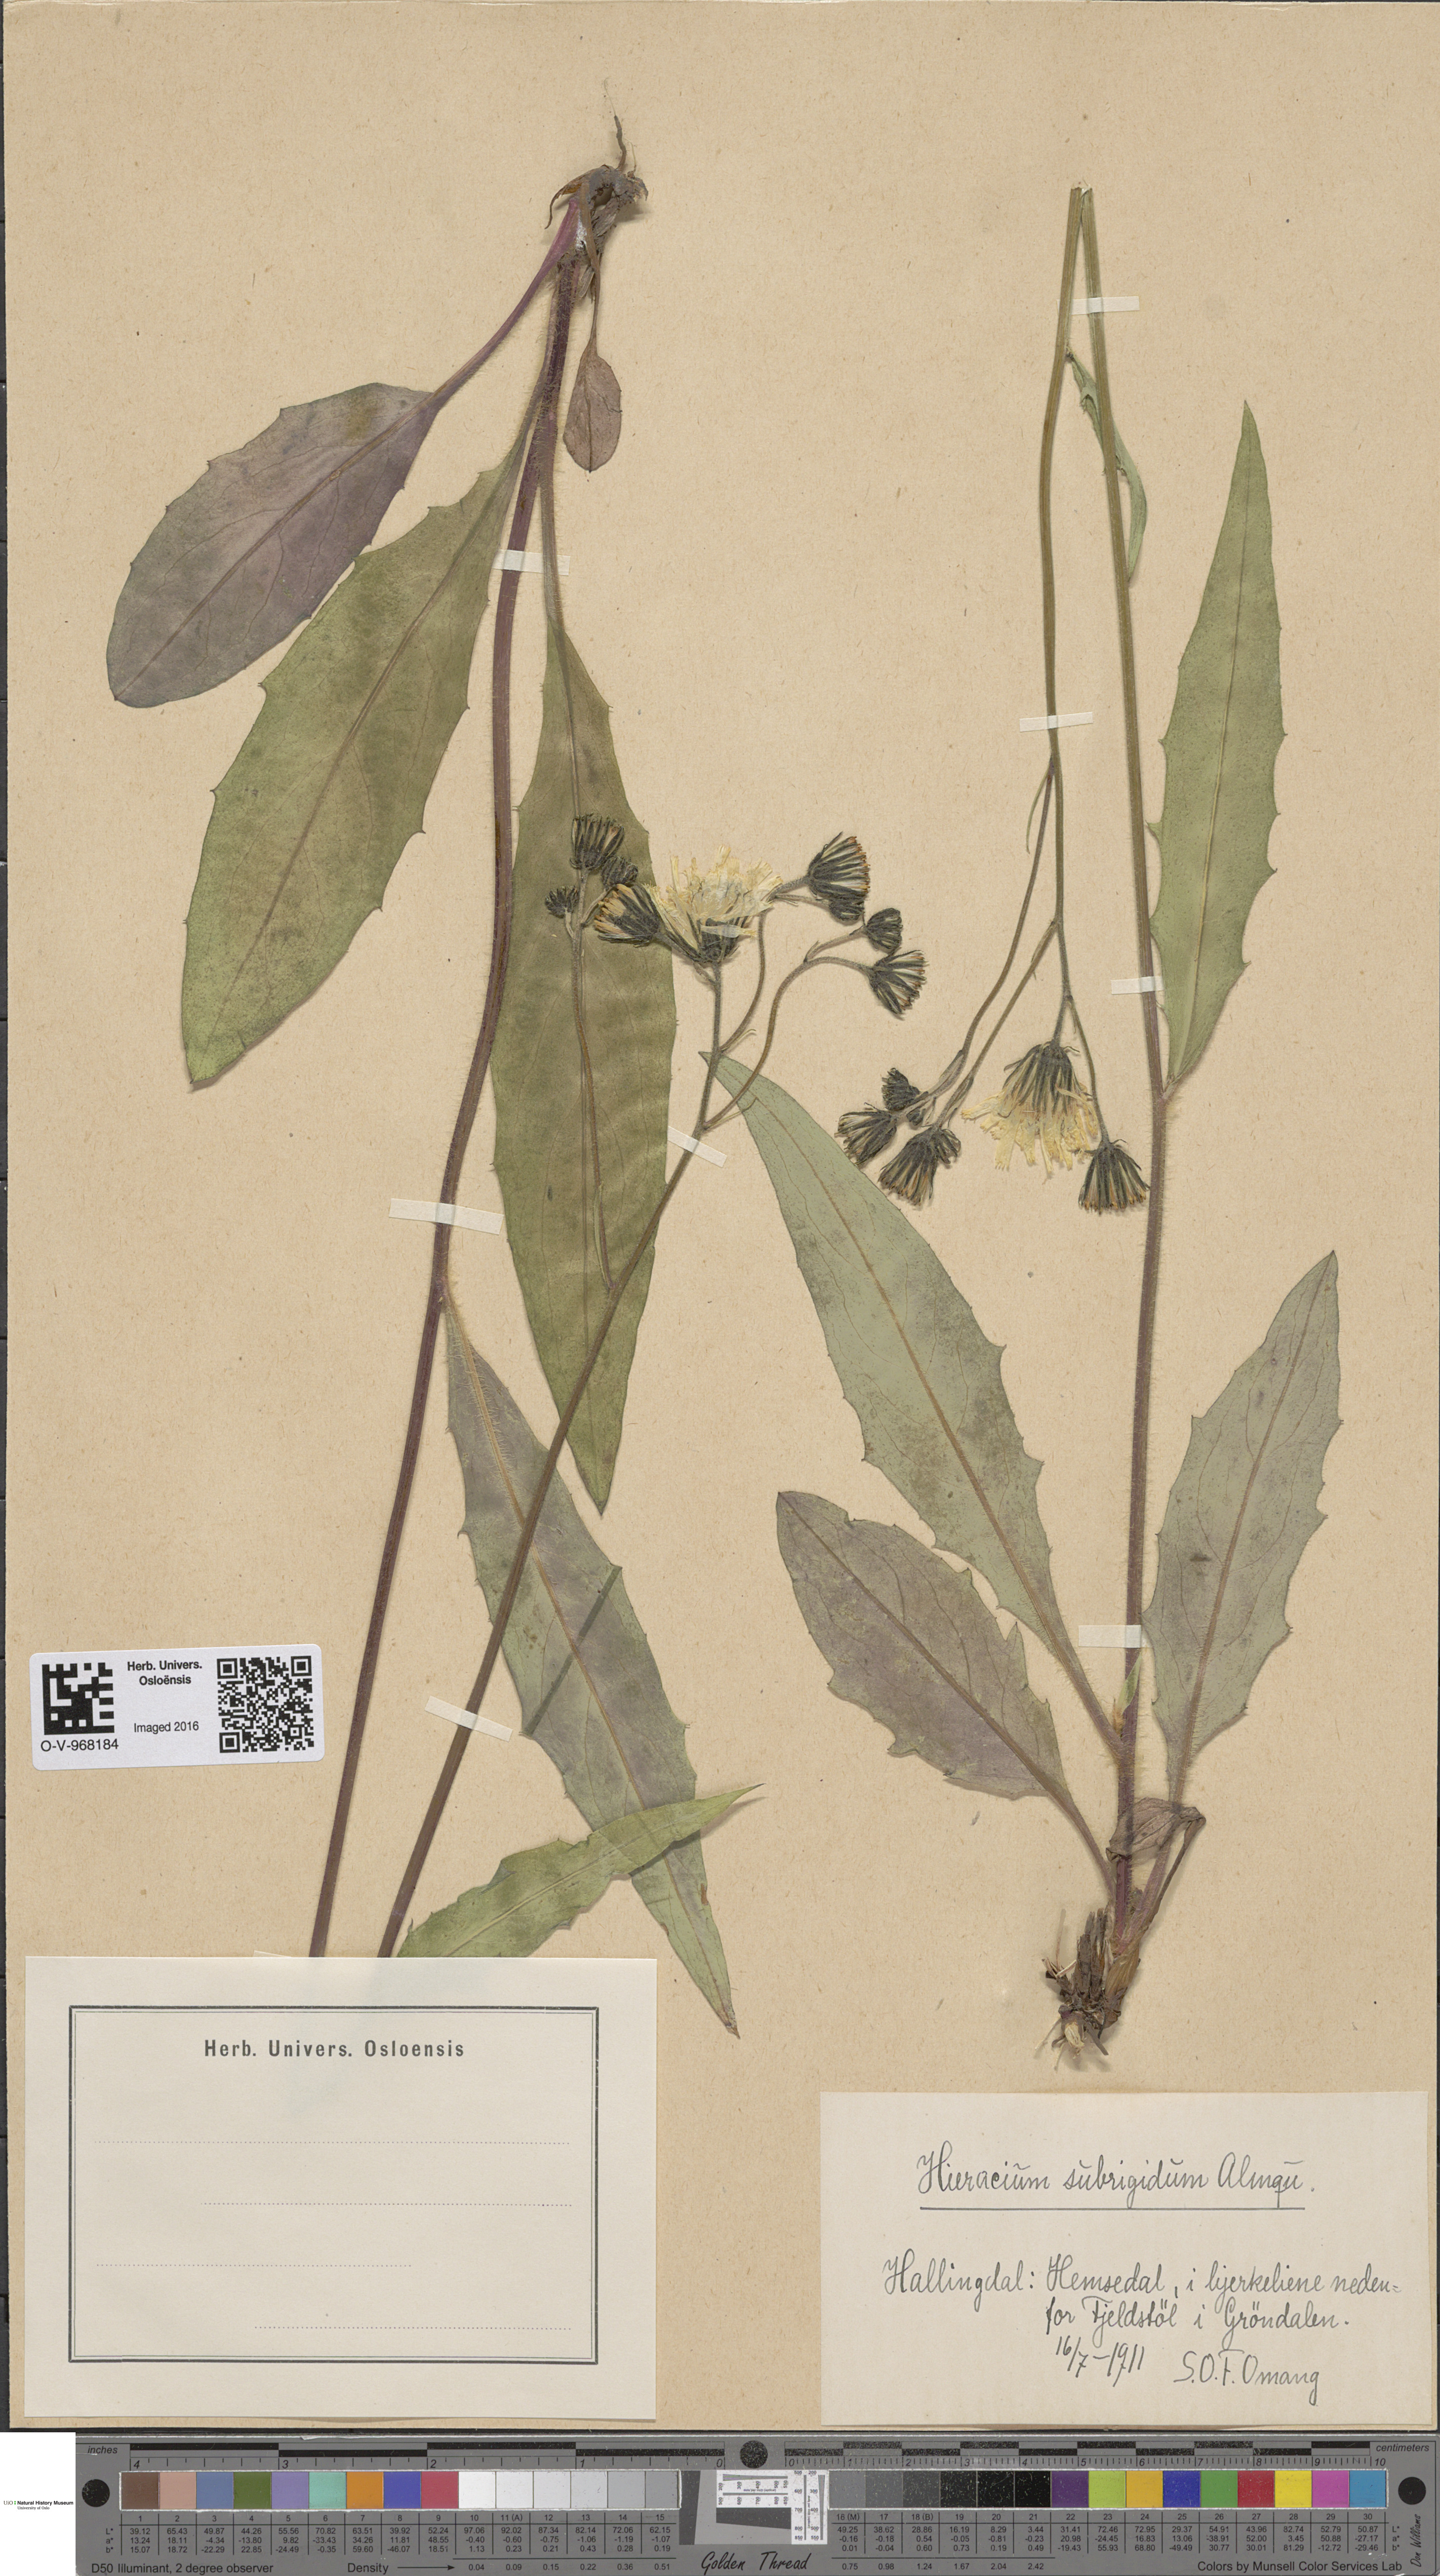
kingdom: Plantae
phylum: Tracheophyta
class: Magnoliopsida
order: Asterales
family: Asteraceae
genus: Hieracium
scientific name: Hieracium subrigidum
